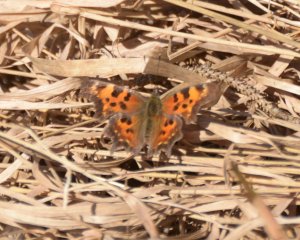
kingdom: Animalia
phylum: Arthropoda
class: Insecta
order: Lepidoptera
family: Nymphalidae
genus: Polygonia
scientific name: Polygonia faunus
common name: Green Comma
